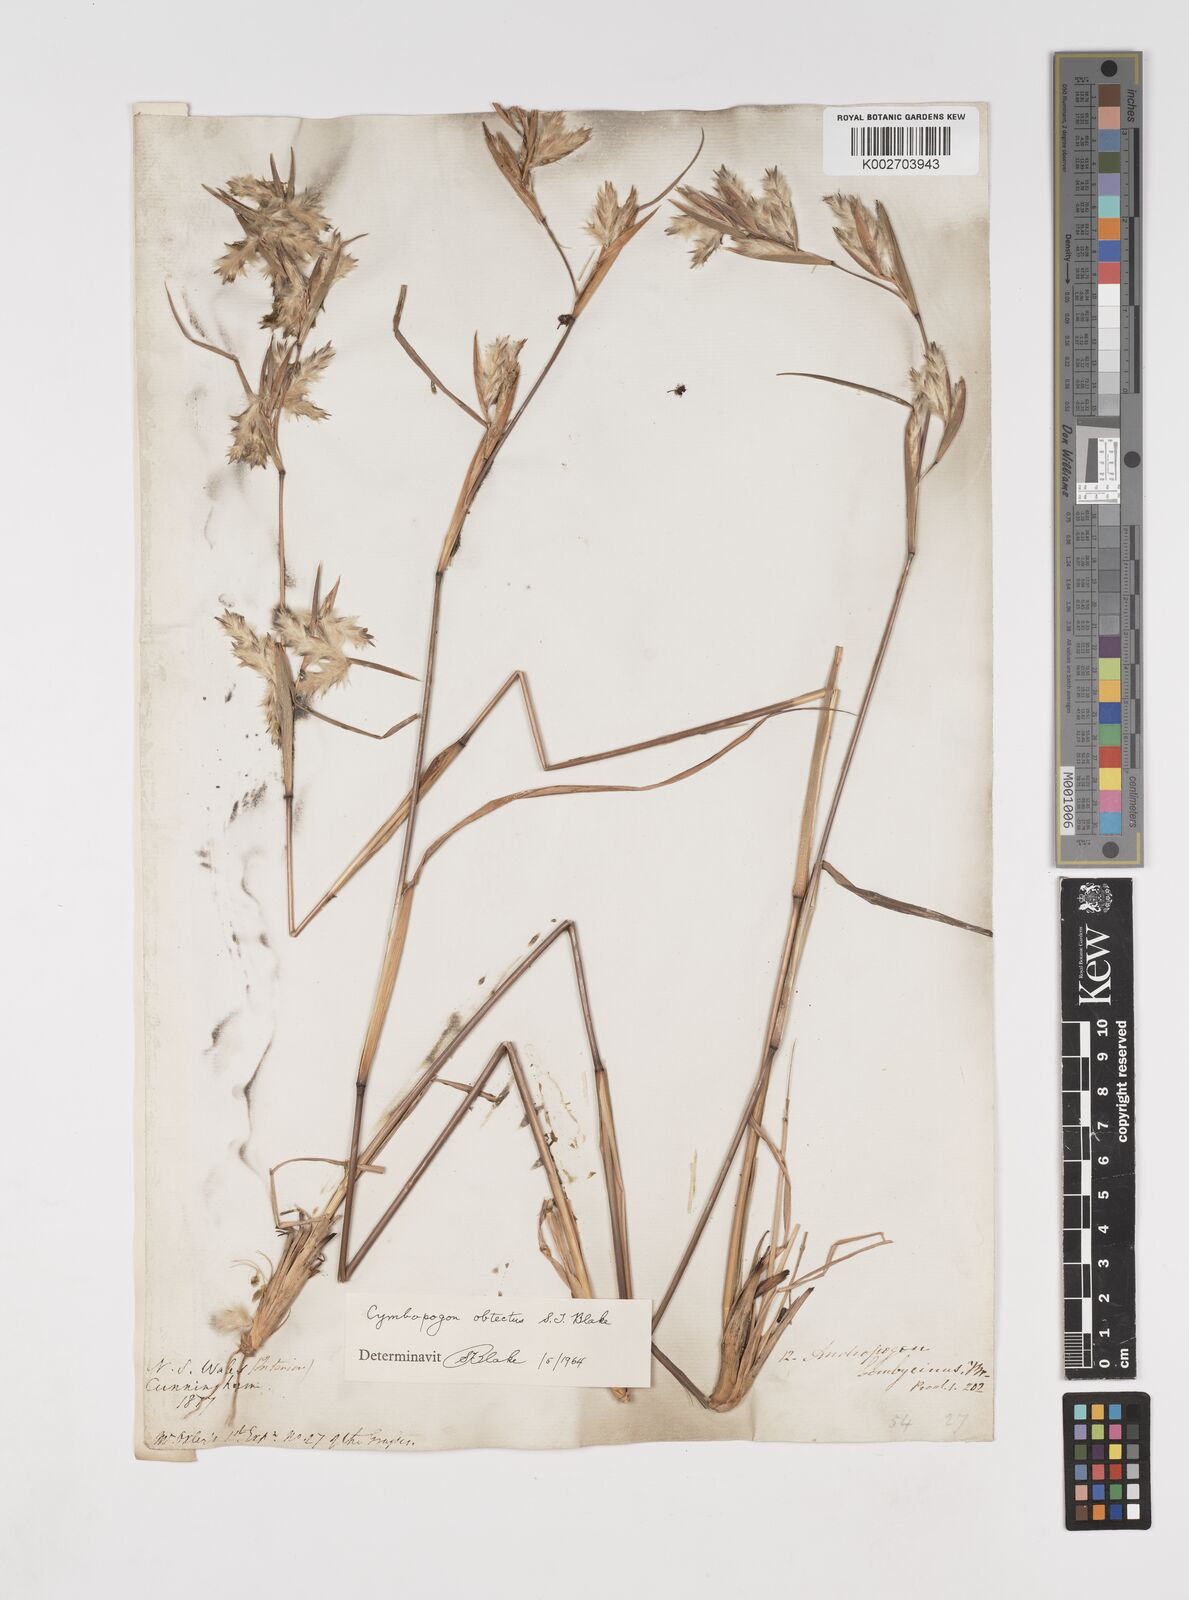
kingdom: Plantae
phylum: Tracheophyta
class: Liliopsida
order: Poales
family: Poaceae
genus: Cymbopogon
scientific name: Cymbopogon obtectus
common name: Silky heads
